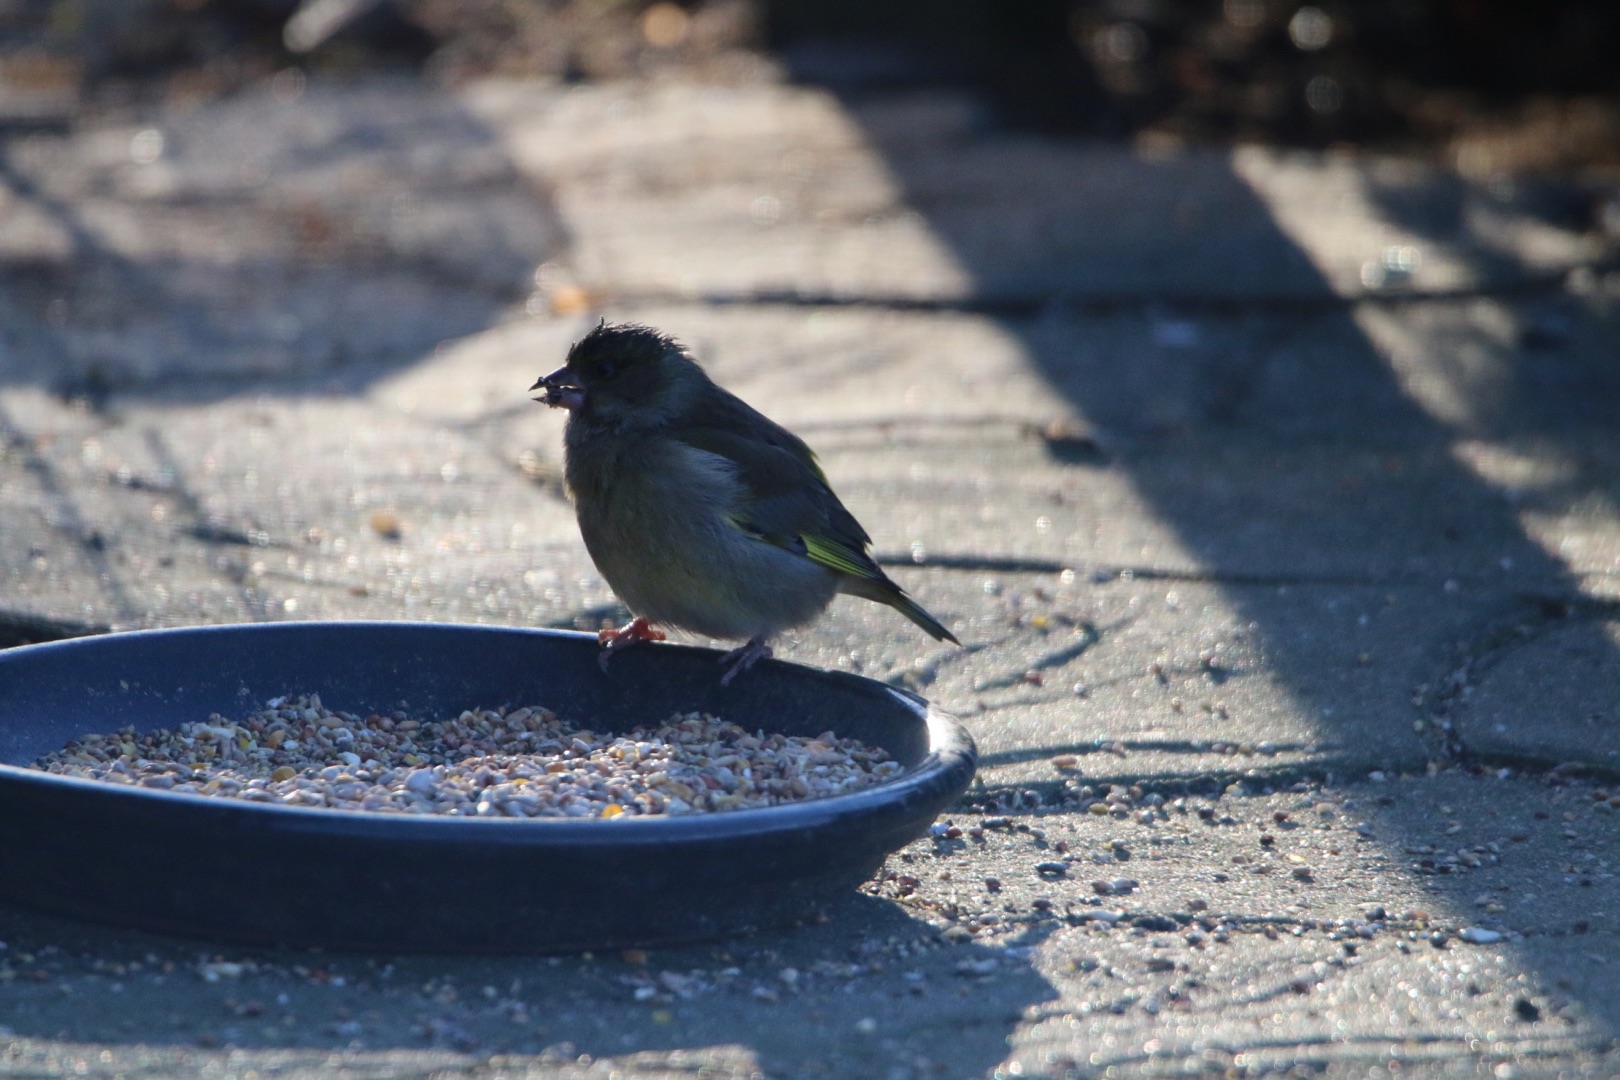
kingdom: Plantae
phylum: Tracheophyta
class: Liliopsida
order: Poales
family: Poaceae
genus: Chloris
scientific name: Chloris chloris
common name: Grønirisk
